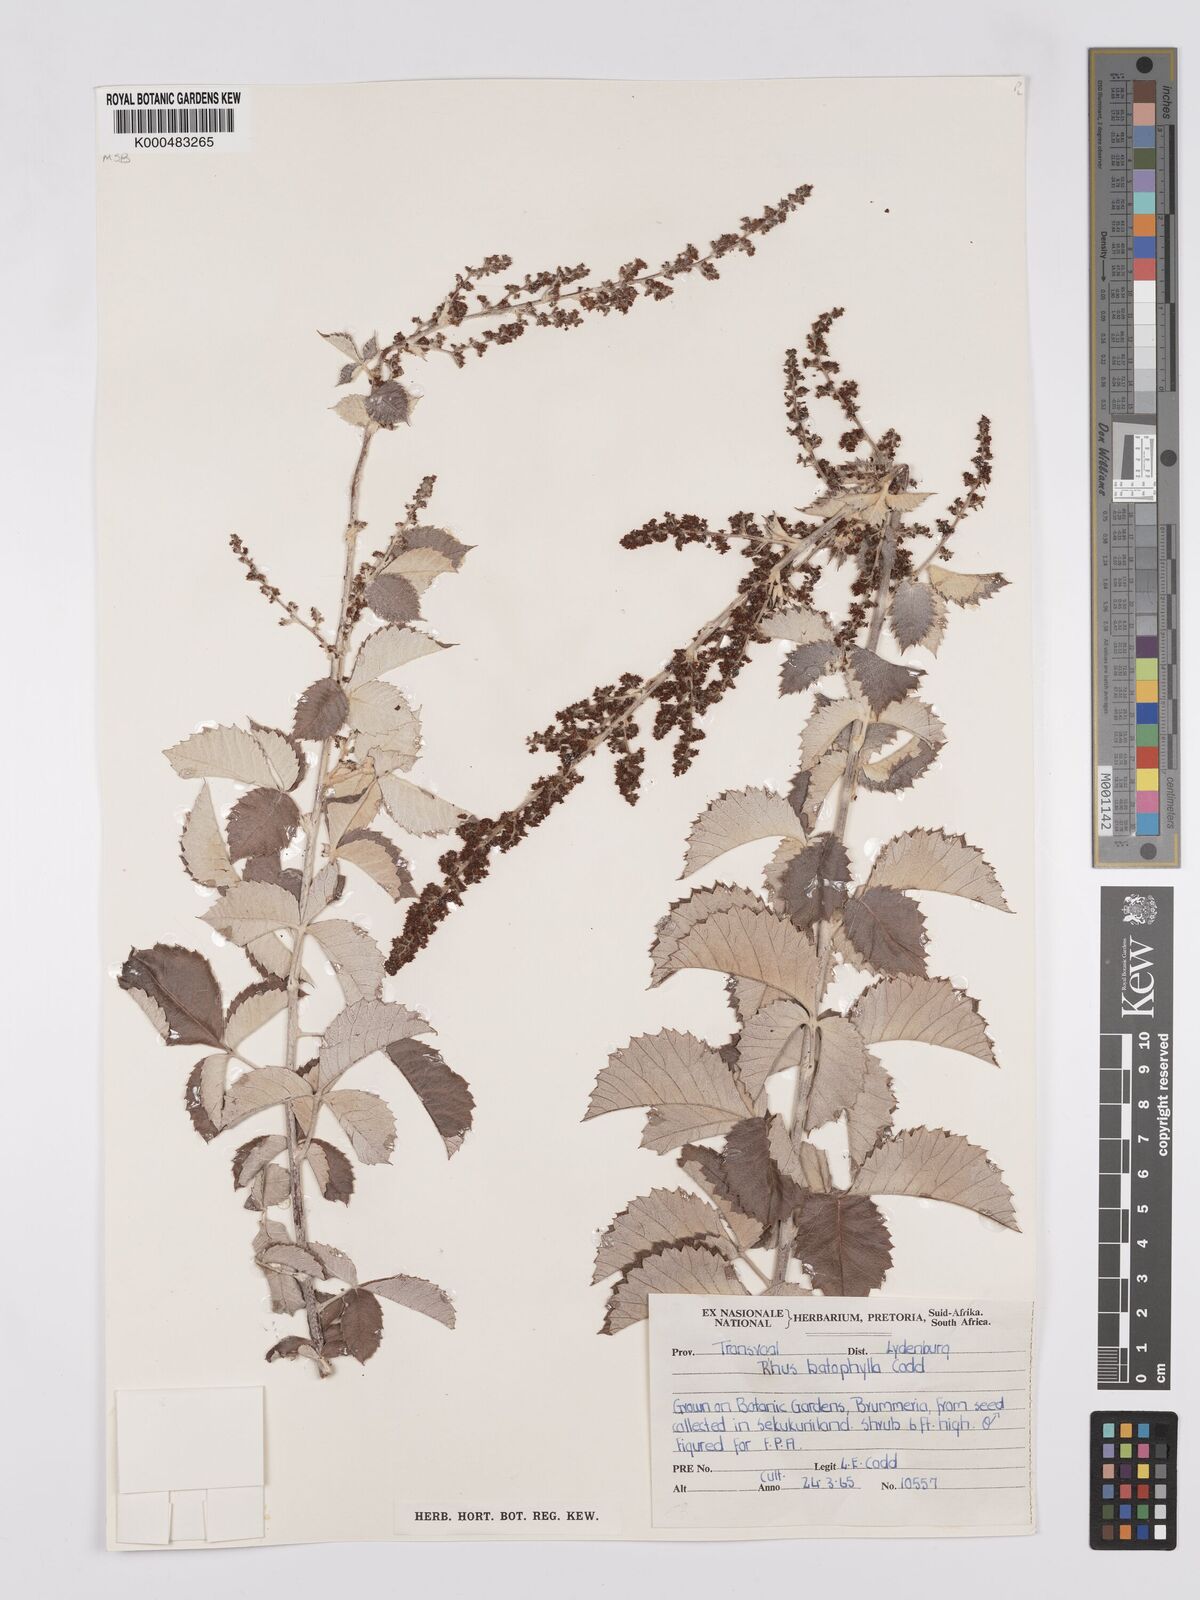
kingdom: Plantae
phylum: Tracheophyta
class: Magnoliopsida
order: Sapindales
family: Anacardiaceae
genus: Searsia
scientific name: Searsia batophylla
